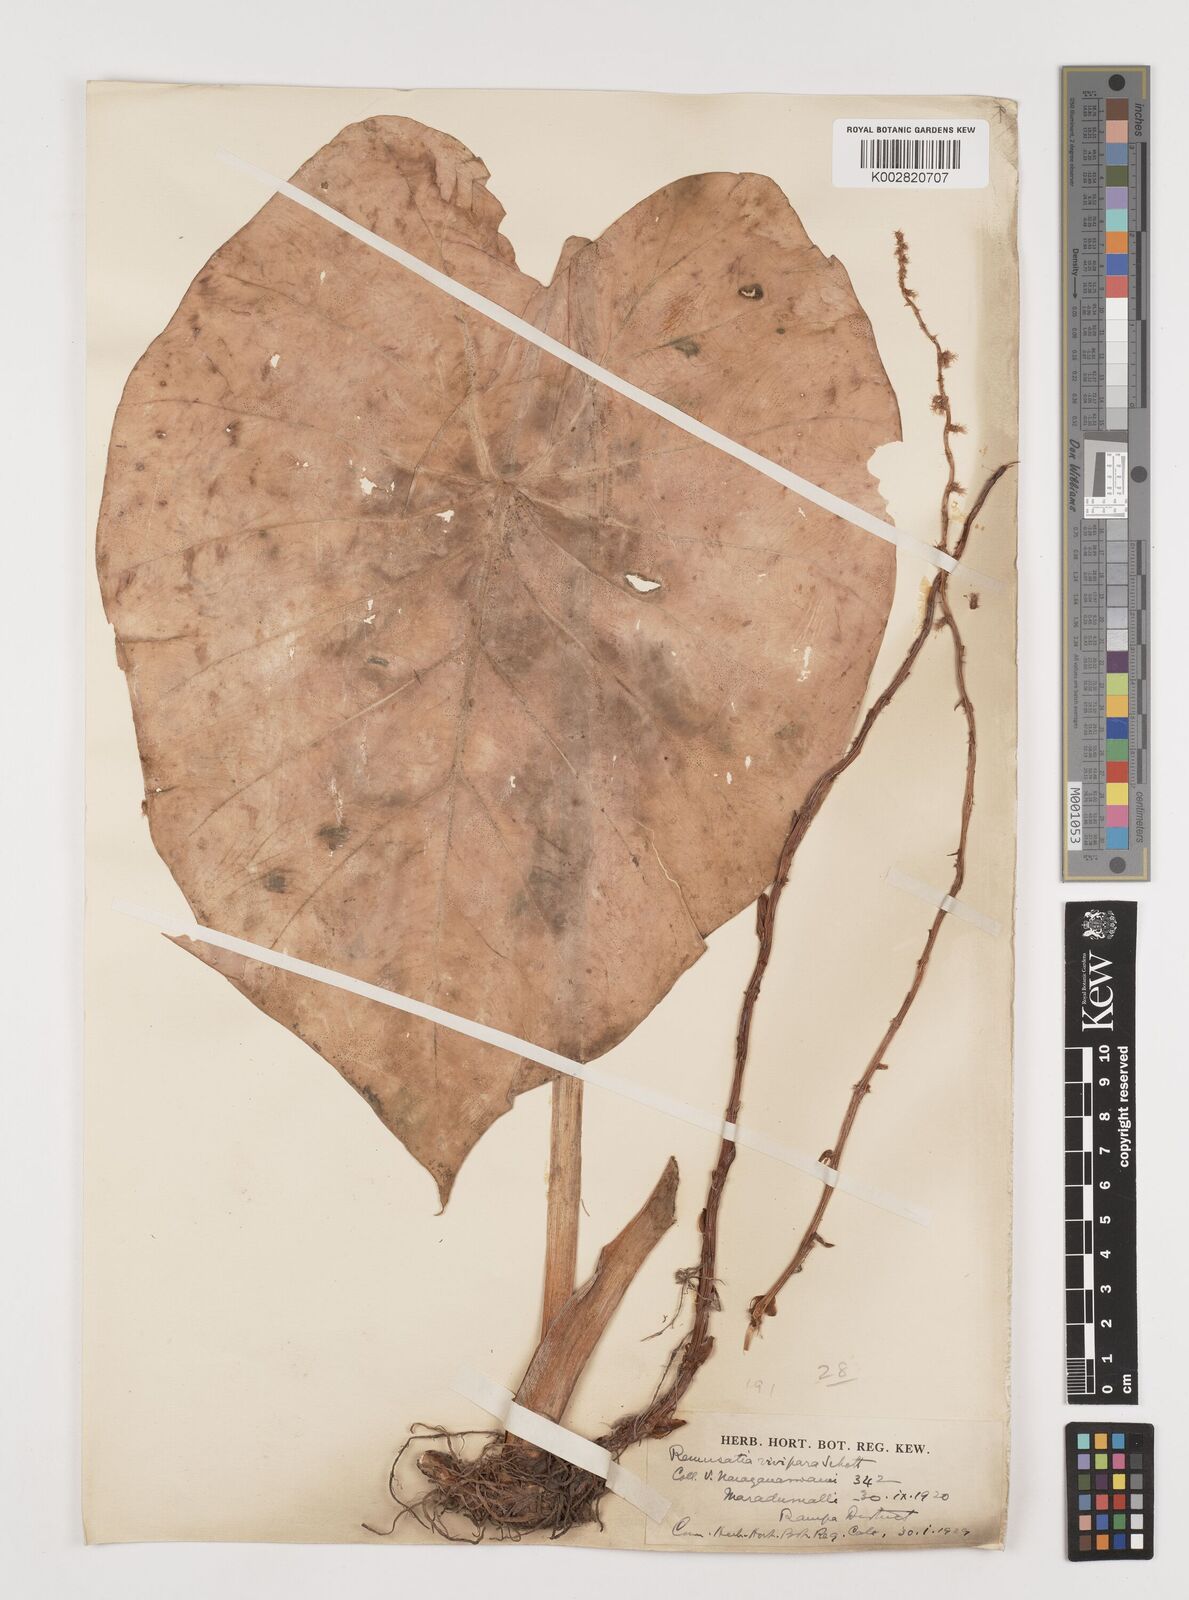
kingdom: Plantae
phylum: Tracheophyta
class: Liliopsida
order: Alismatales
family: Araceae
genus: Remusatia
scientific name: Remusatia vivipara
